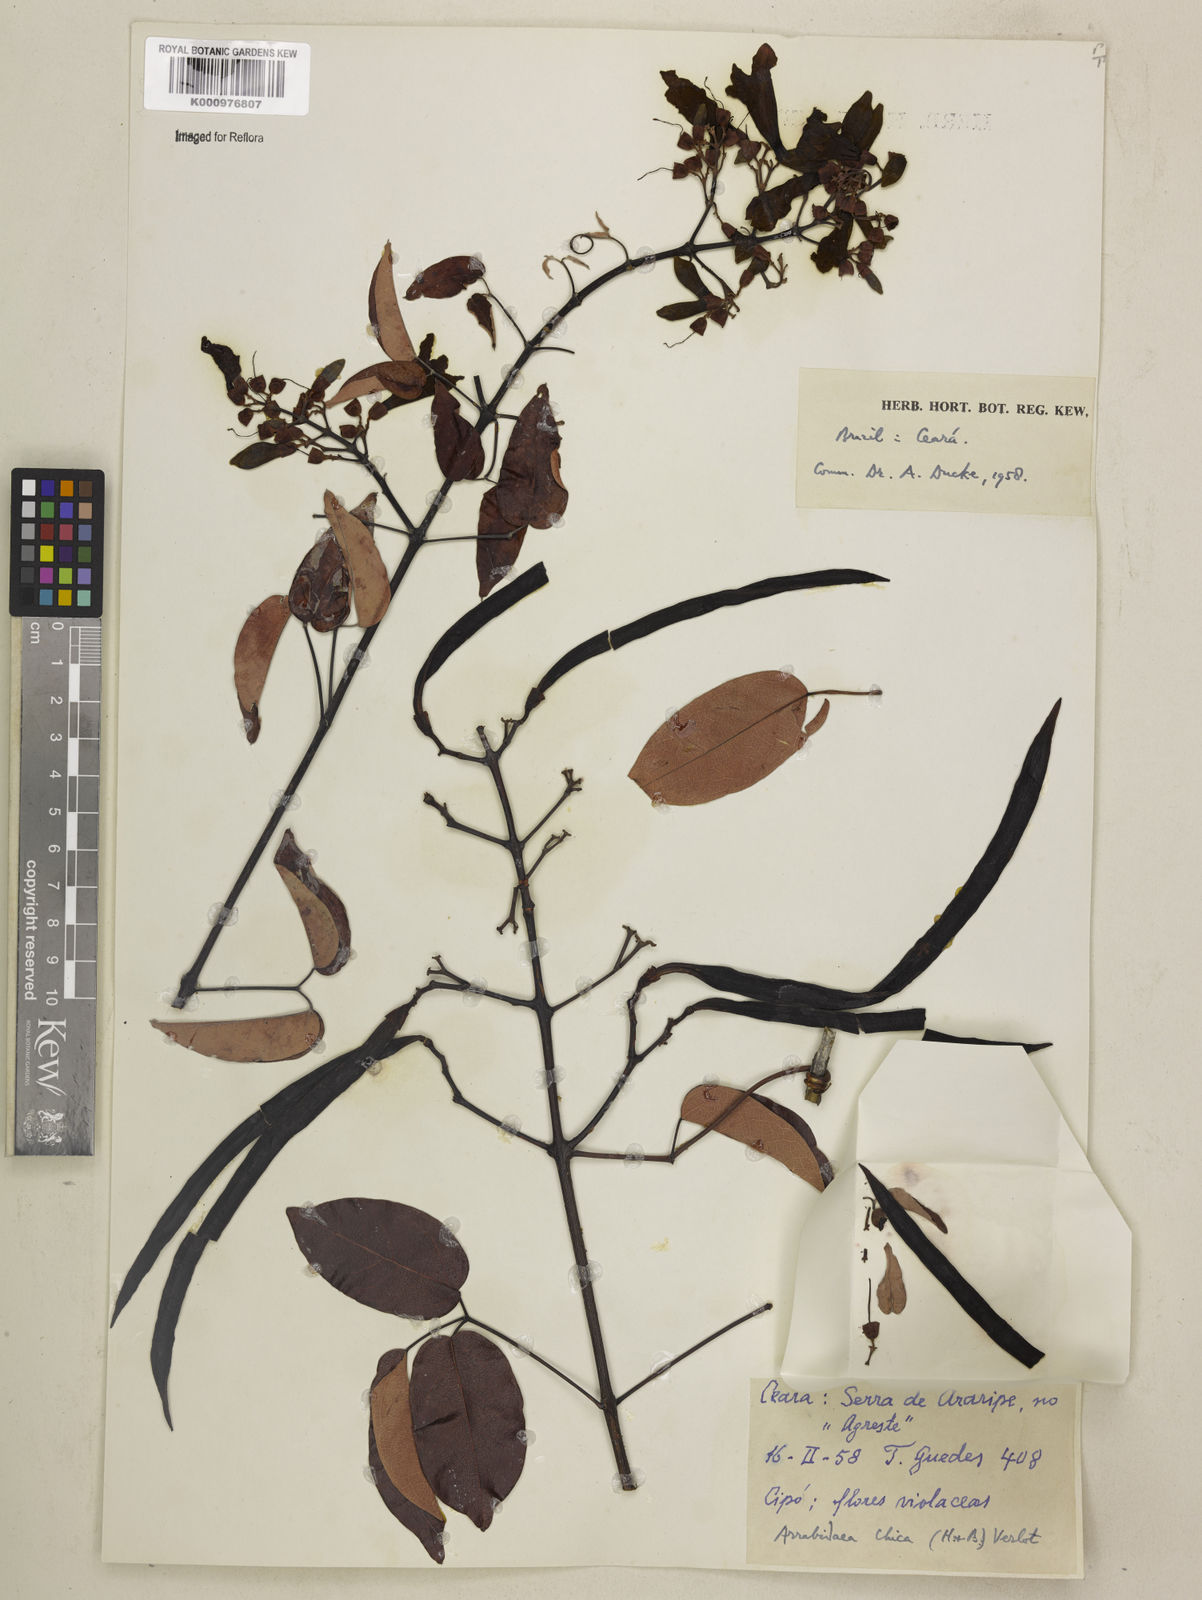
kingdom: Plantae
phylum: Tracheophyta
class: Magnoliopsida
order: Lamiales
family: Bignoniaceae
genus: Fridericia
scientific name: Fridericia chica
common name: Cricketvine
